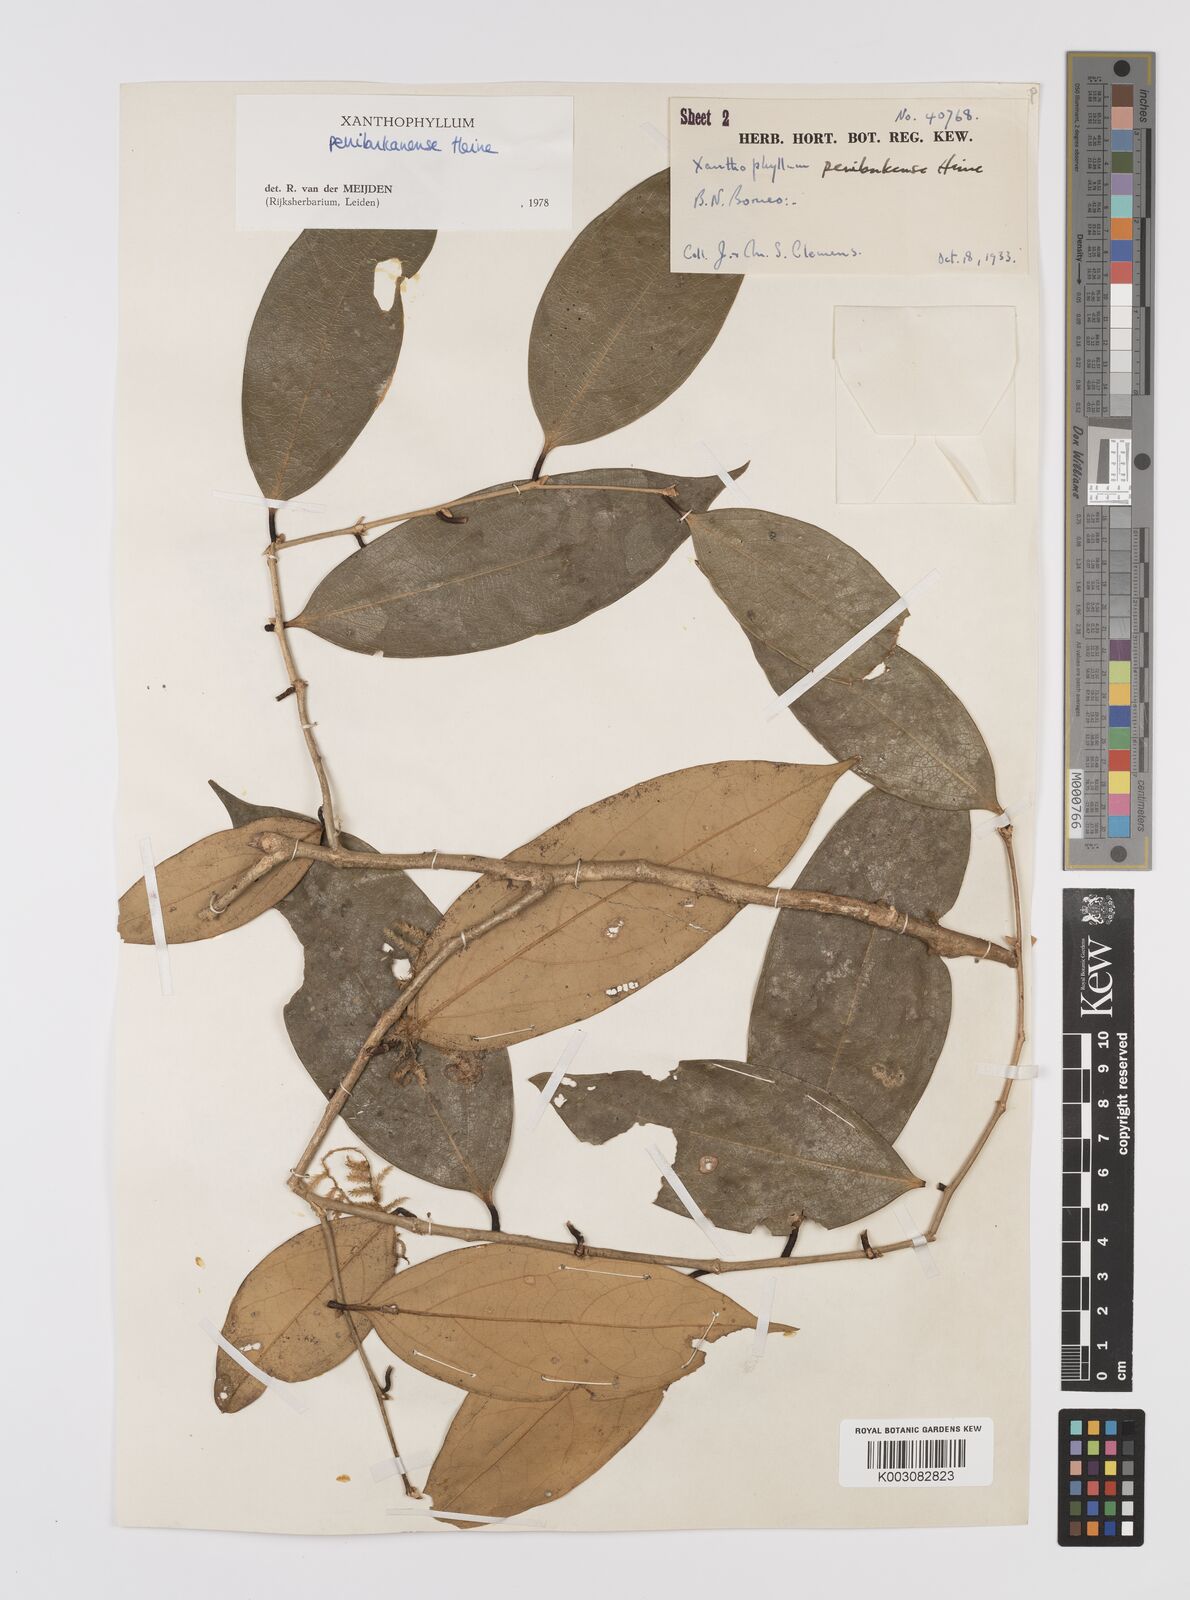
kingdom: Plantae
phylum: Tracheophyta
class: Magnoliopsida
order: Fabales
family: Polygalaceae
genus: Xanthophyllum
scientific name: Xanthophyllum penibukanense
